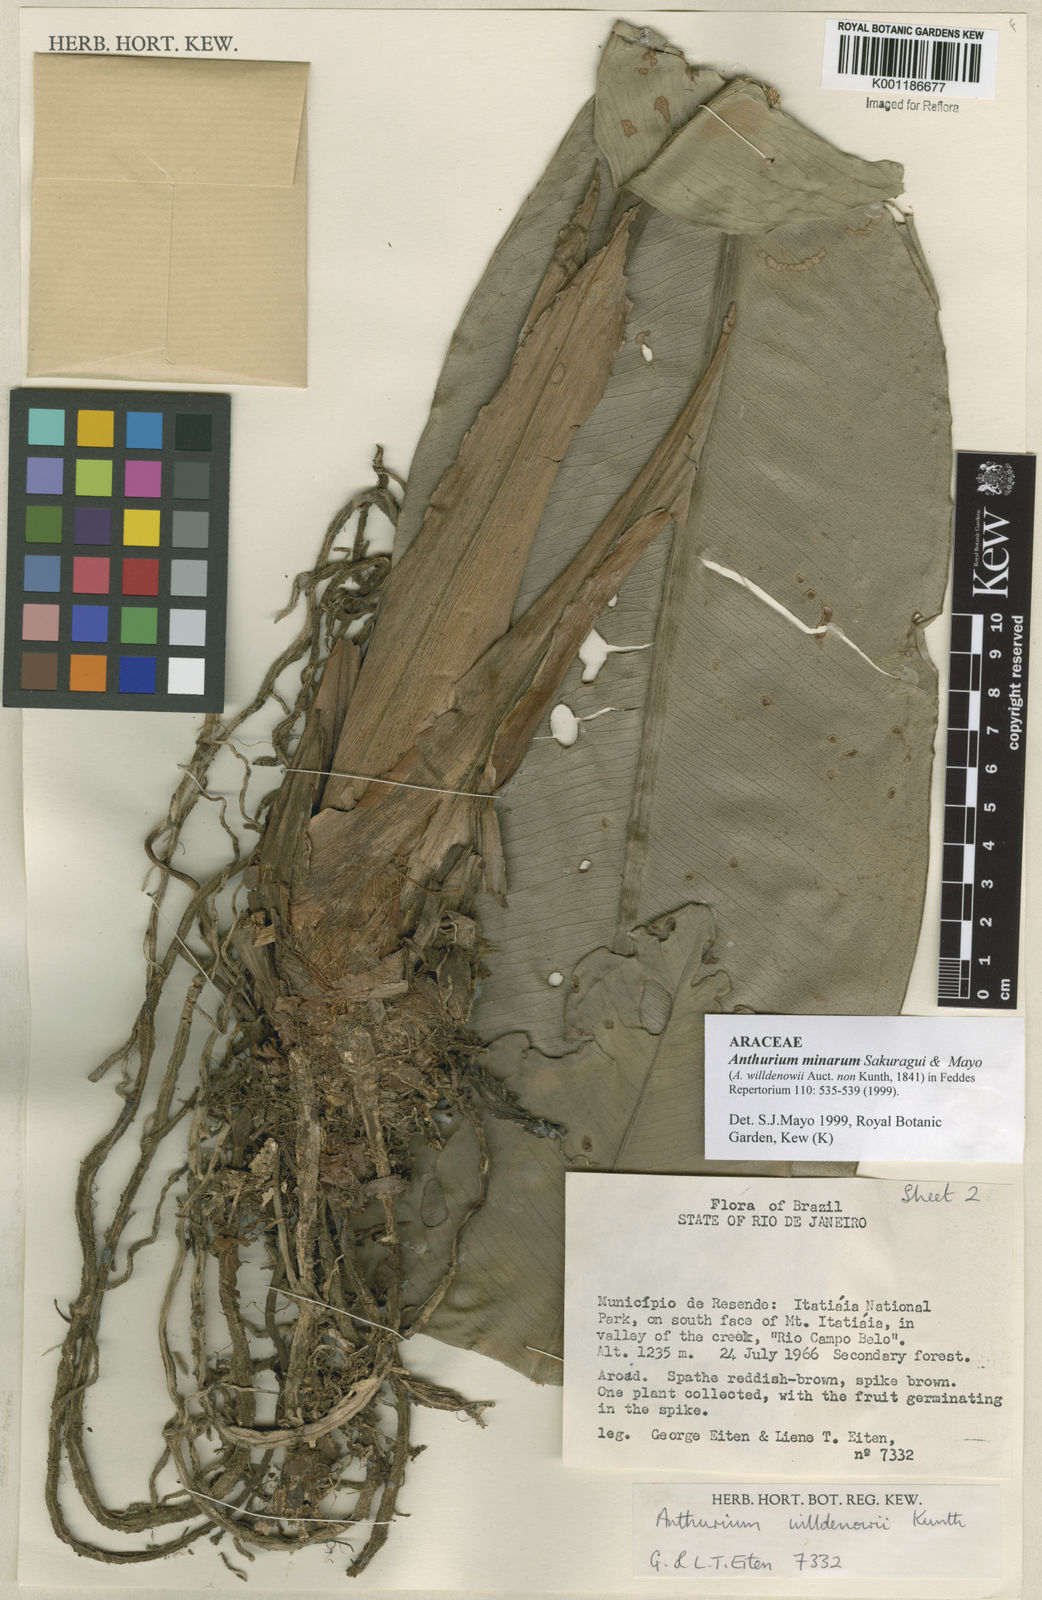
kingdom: Plantae
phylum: Tracheophyta
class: Liliopsida
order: Alismatales
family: Araceae
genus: Anthurium
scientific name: Anthurium minarum
